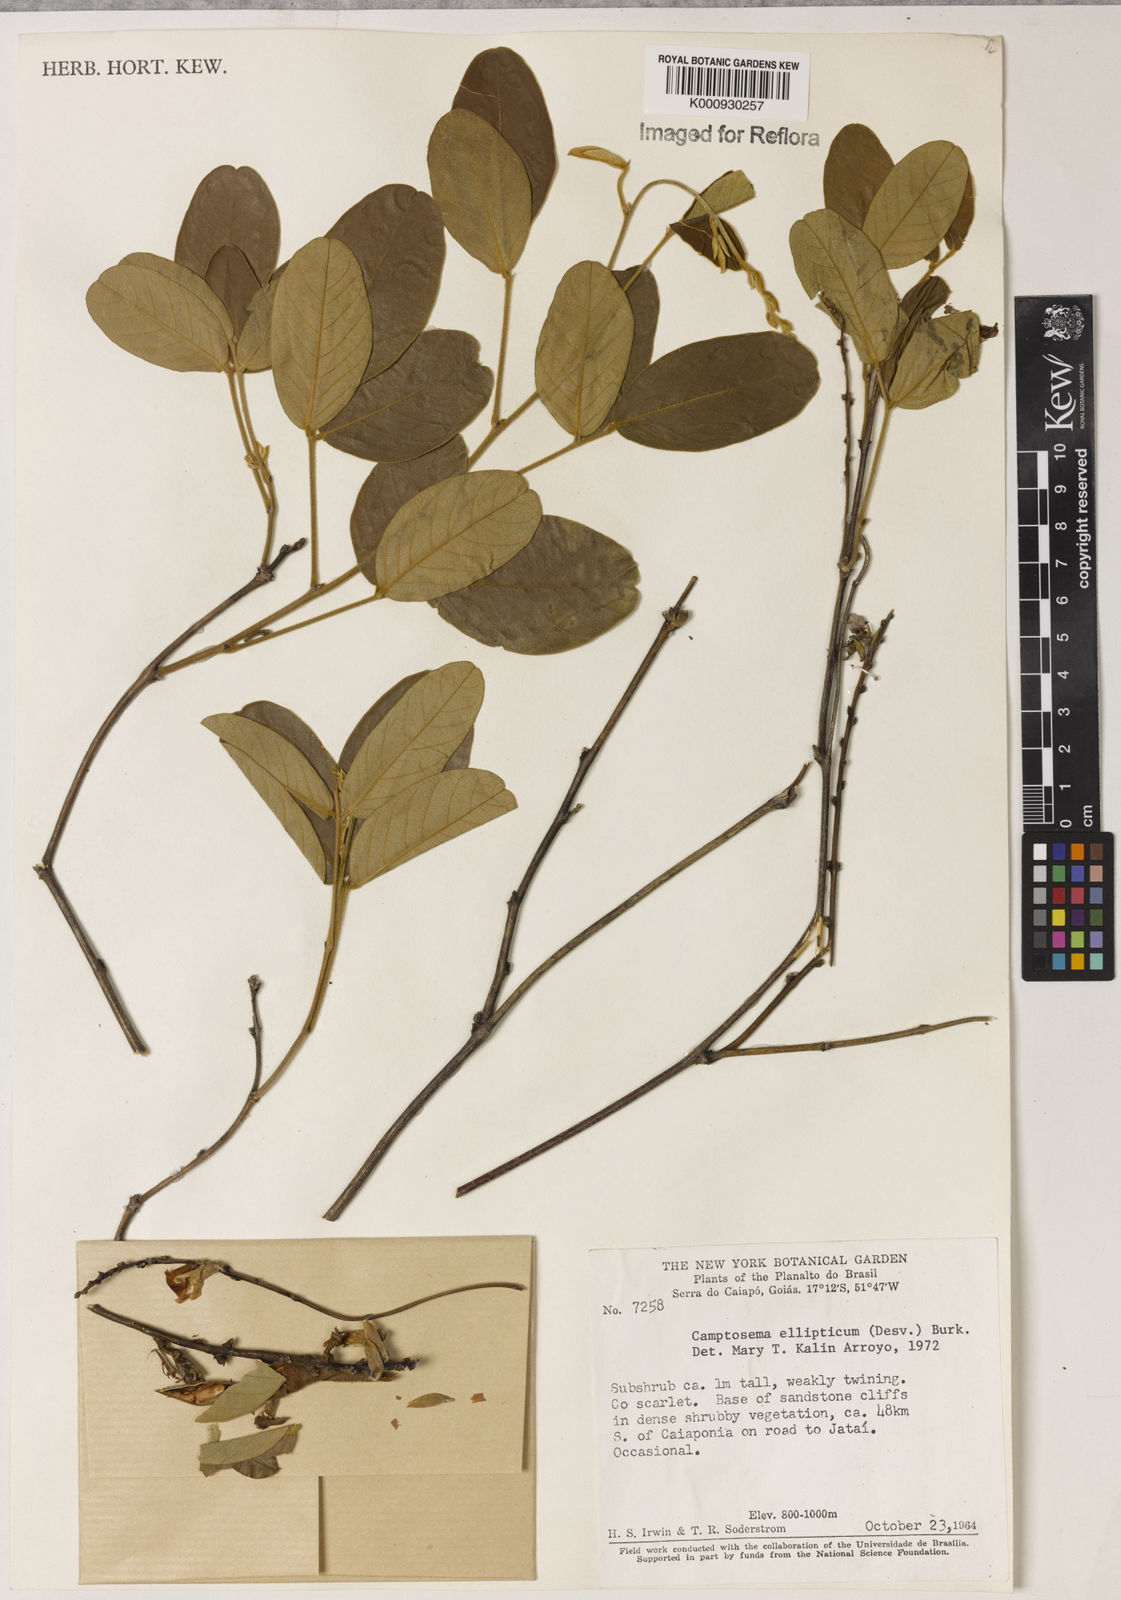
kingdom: Plantae
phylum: Tracheophyta
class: Magnoliopsida
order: Fabales
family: Fabaceae
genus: Camptosema
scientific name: Camptosema
